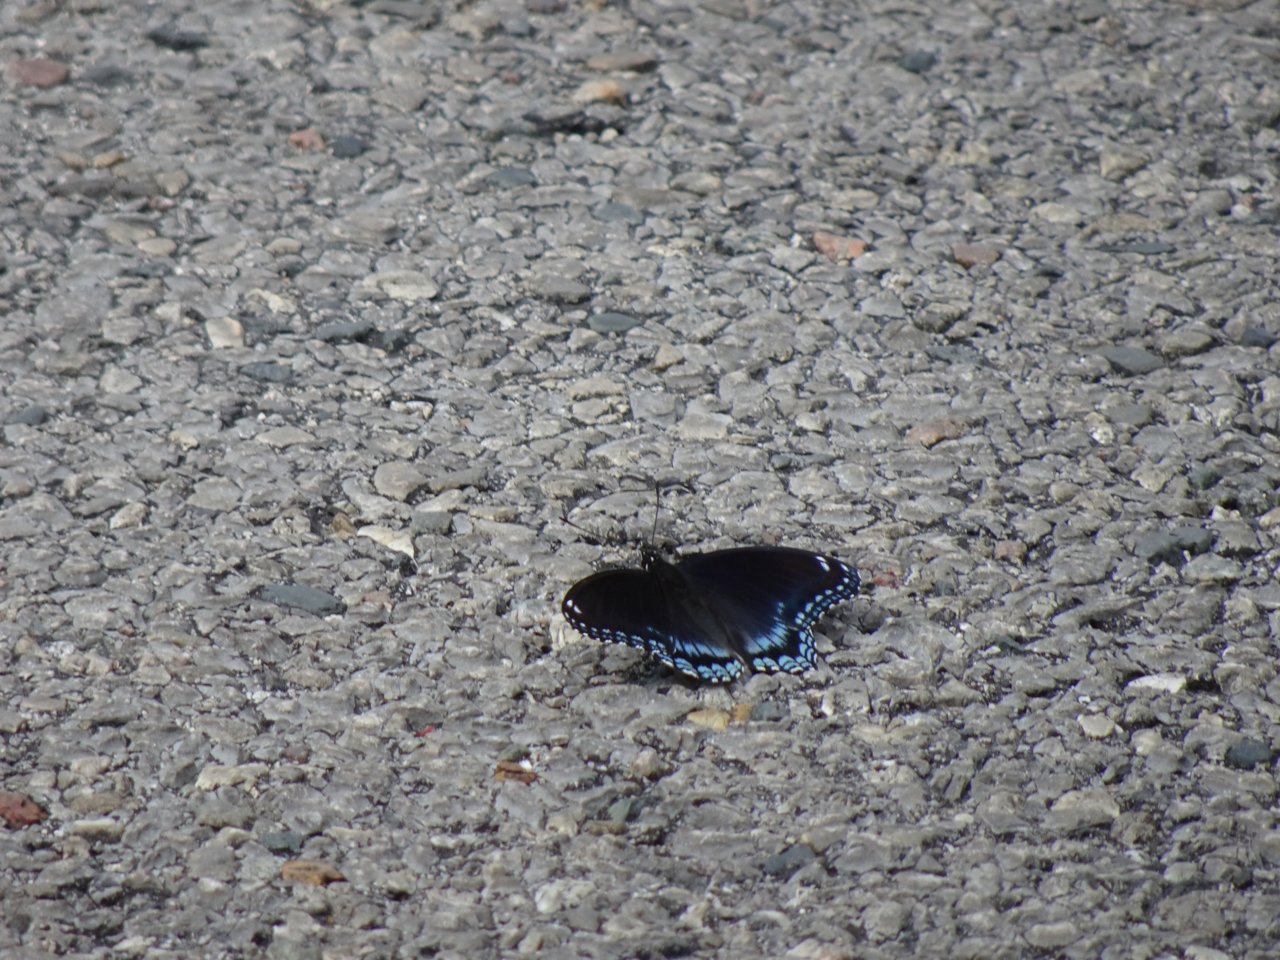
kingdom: Animalia
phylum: Arthropoda
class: Insecta
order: Lepidoptera
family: Nymphalidae
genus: Limenitis
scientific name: Limenitis astyanax
